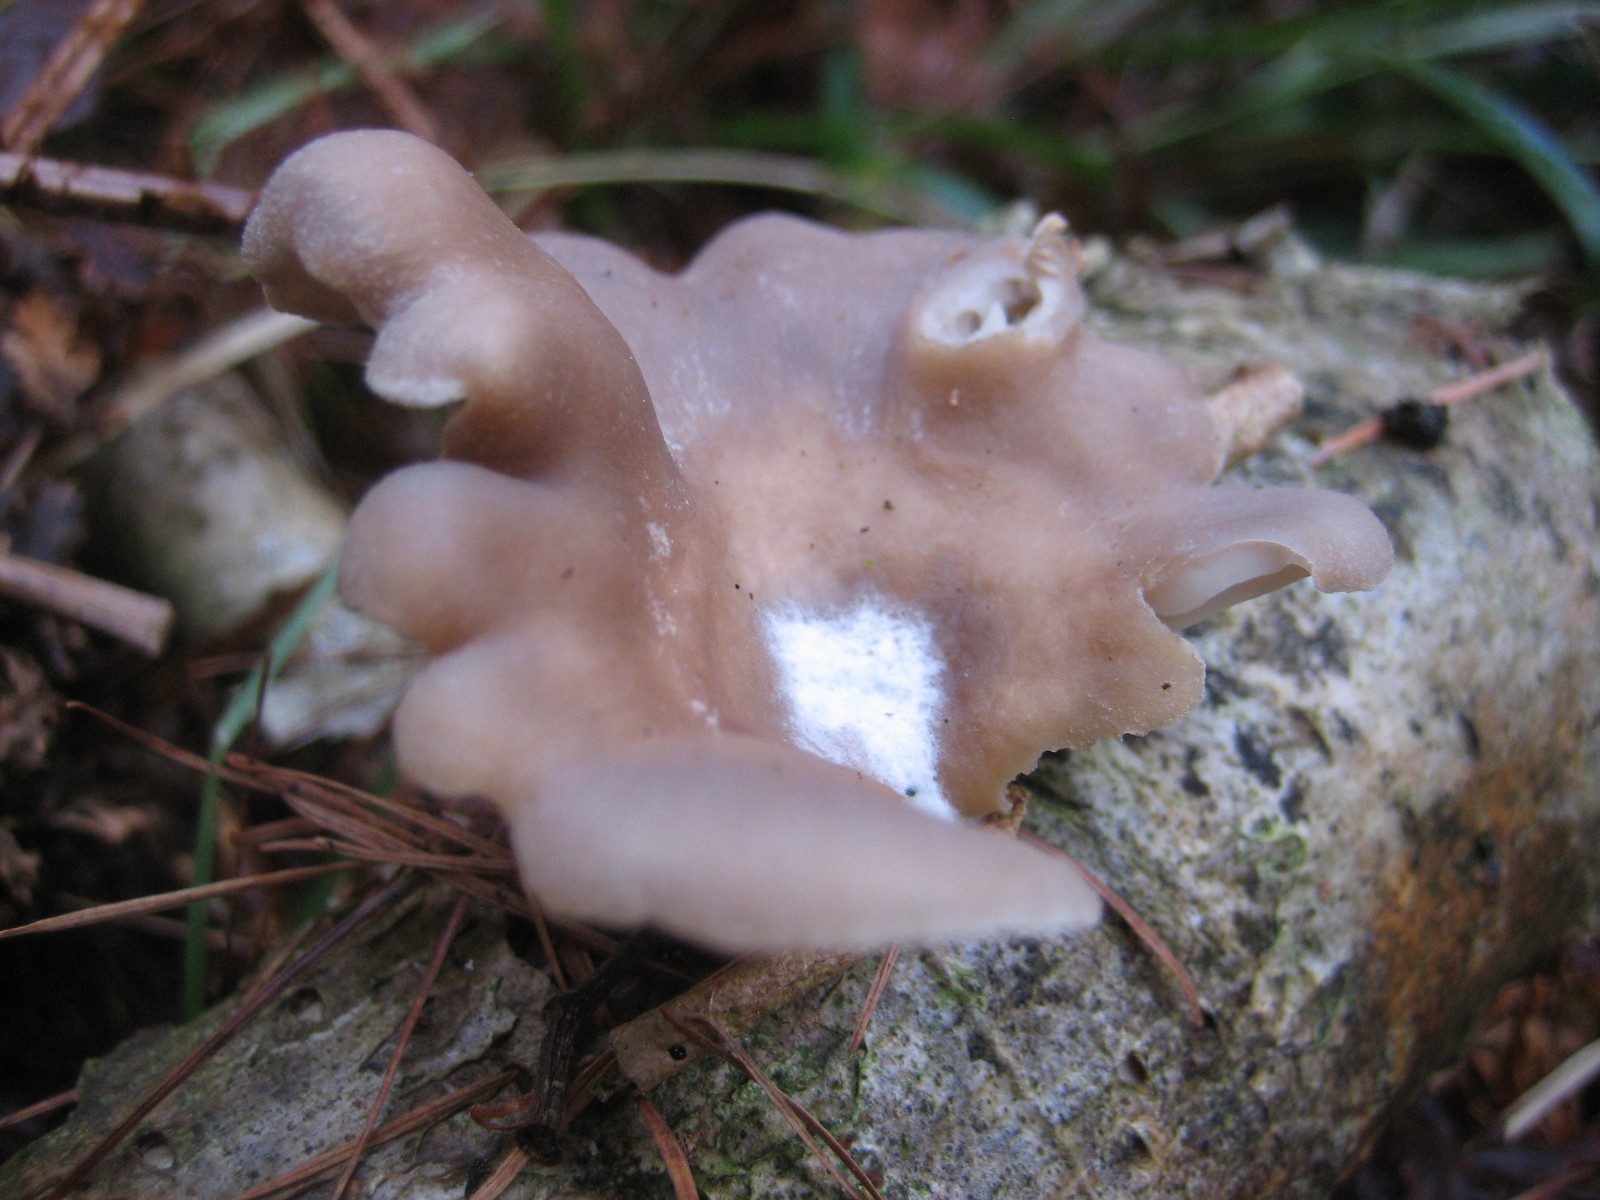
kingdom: Fungi
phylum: Basidiomycota
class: Agaricomycetes
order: Agaricales
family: Pleurotaceae
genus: Pleurotus
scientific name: Pleurotus ostreatus
